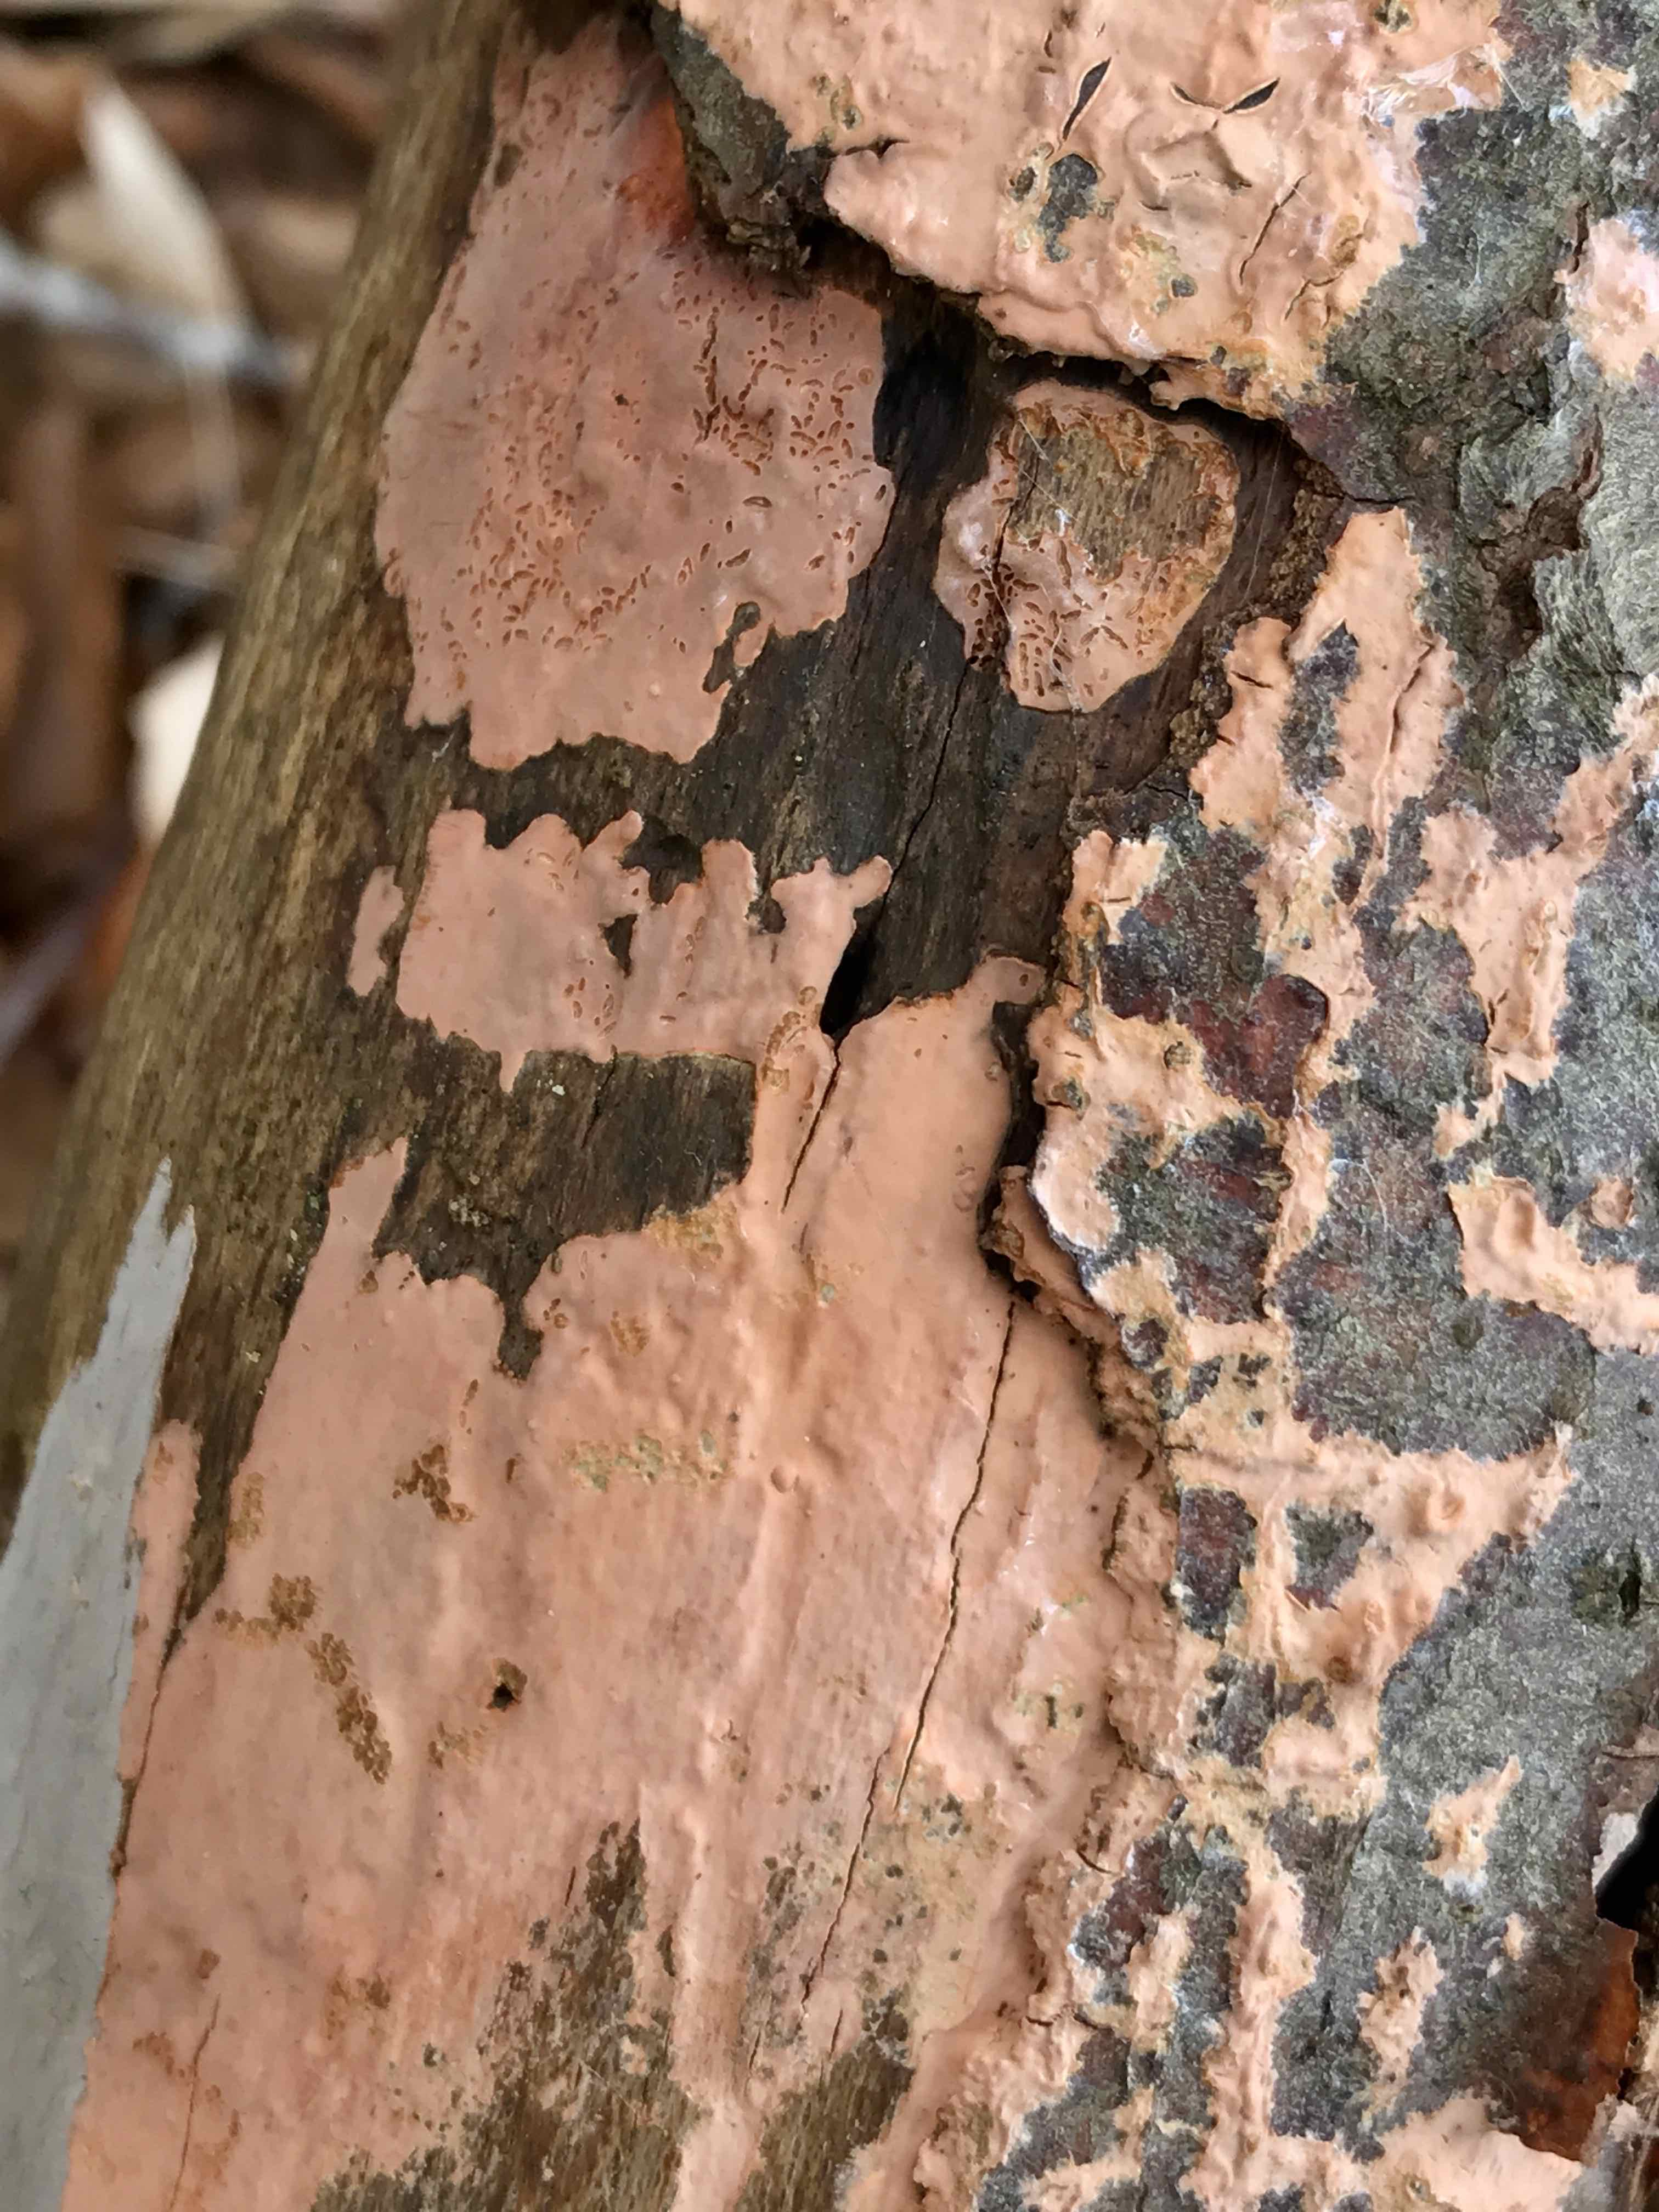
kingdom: Fungi
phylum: Basidiomycota
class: Agaricomycetes
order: Russulales
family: Peniophoraceae
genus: Peniophora
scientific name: Peniophora incarnata
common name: laksefarvet voksskind
